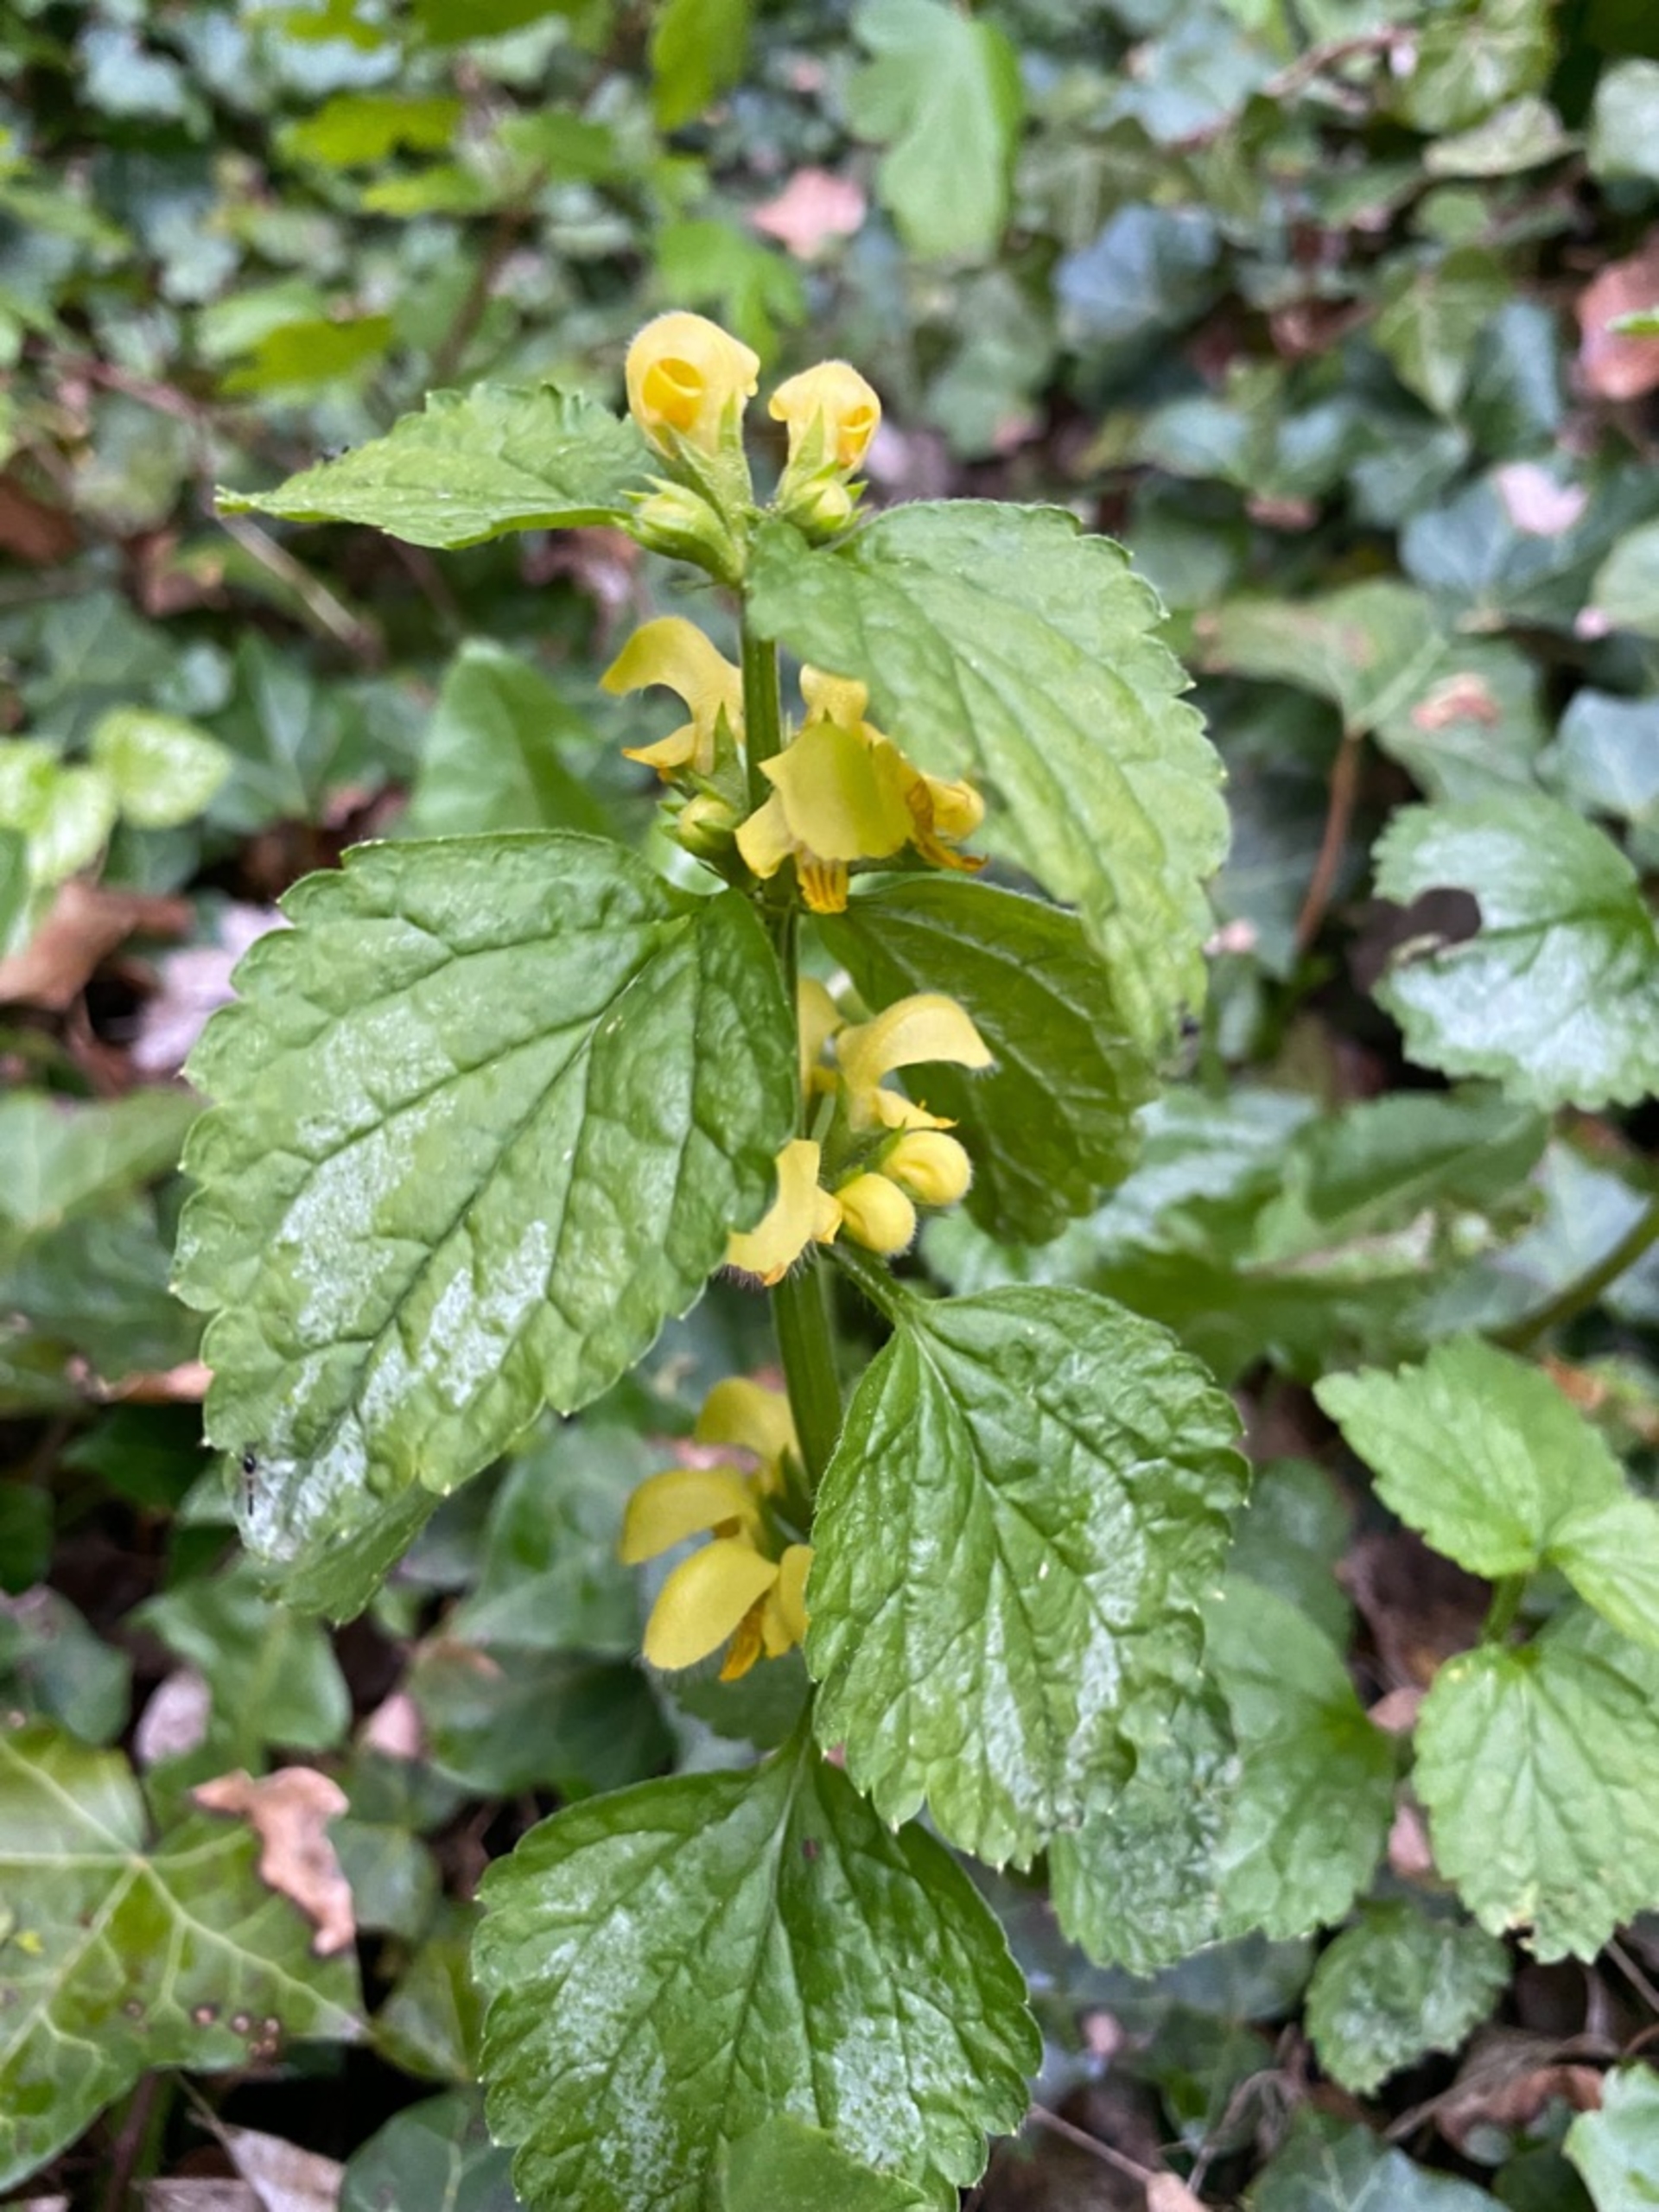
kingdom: Plantae
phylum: Tracheophyta
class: Magnoliopsida
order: Lamiales
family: Lamiaceae
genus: Lamium
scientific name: Lamium galeobdolon
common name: Guldnælde
